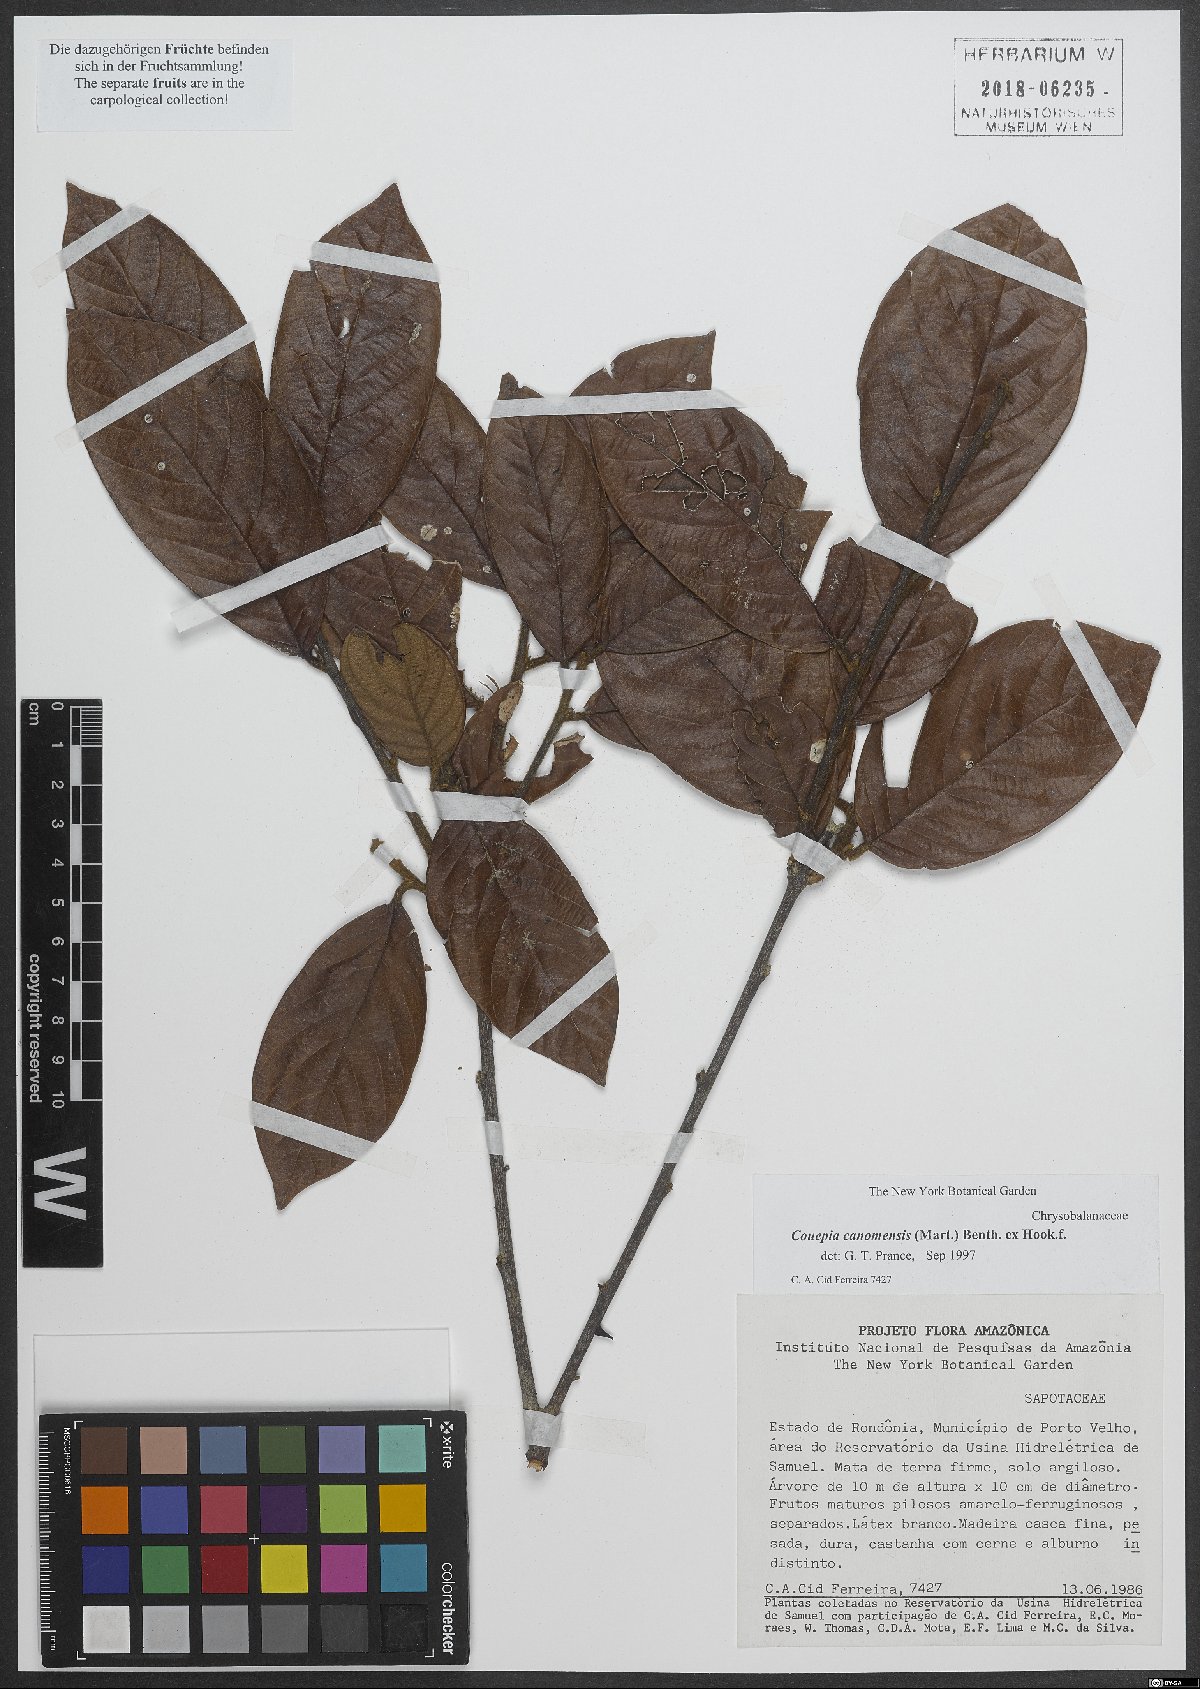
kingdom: Plantae
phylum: Tracheophyta
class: Magnoliopsida
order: Malpighiales
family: Chrysobalanaceae
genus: Gaulettia
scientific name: Gaulettia canomensis
